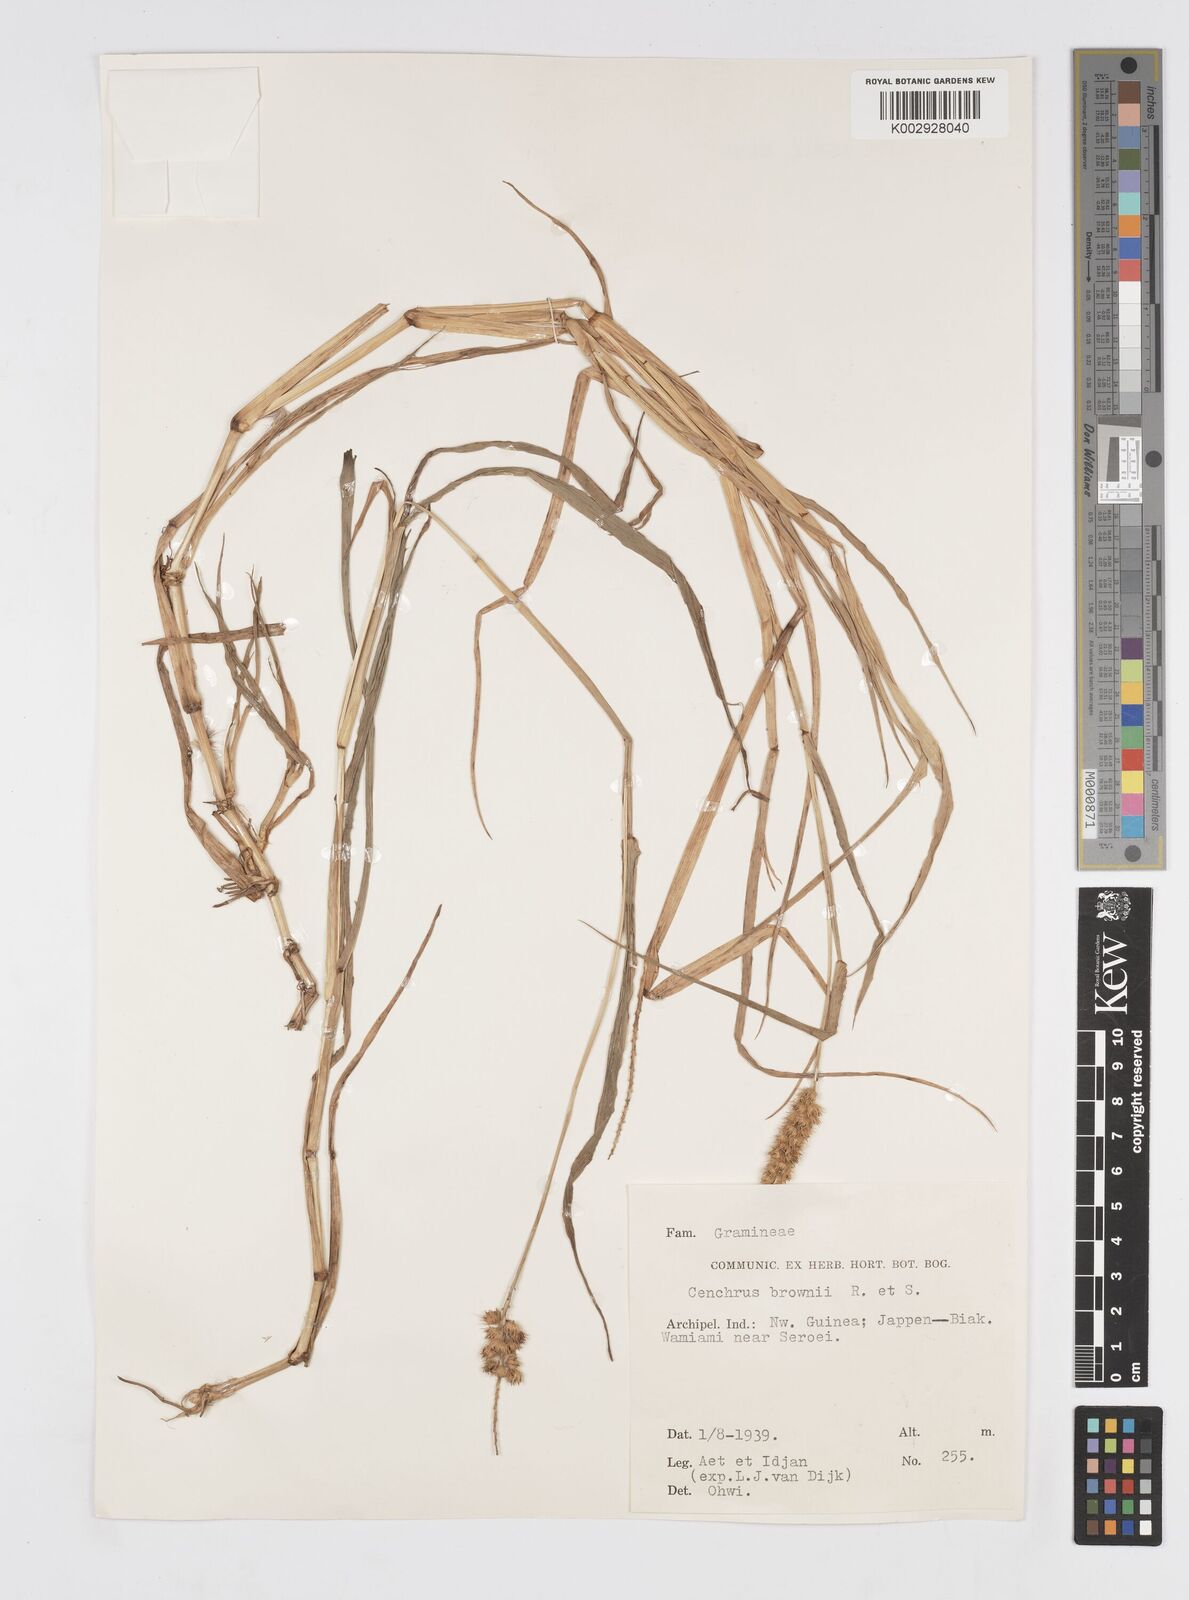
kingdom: Plantae
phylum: Tracheophyta
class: Liliopsida
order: Poales
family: Poaceae
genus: Cenchrus
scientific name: Cenchrus brownii
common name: Slim-bristle sandbur
